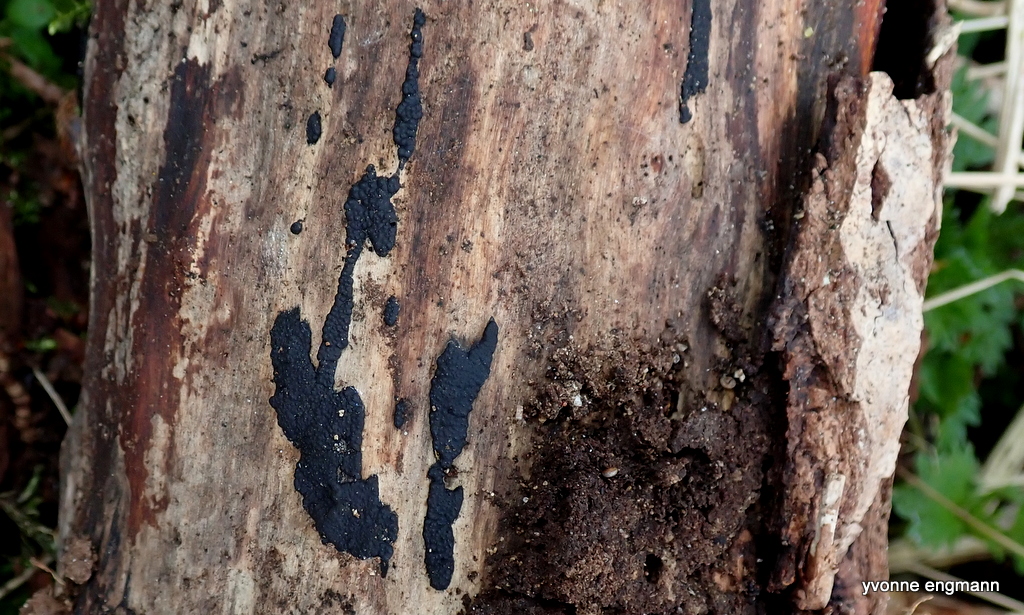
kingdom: Fungi
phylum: Ascomycota
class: Sordariomycetes
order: Xylariales
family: Xylariaceae
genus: Nemania
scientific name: Nemania
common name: kuldyne
